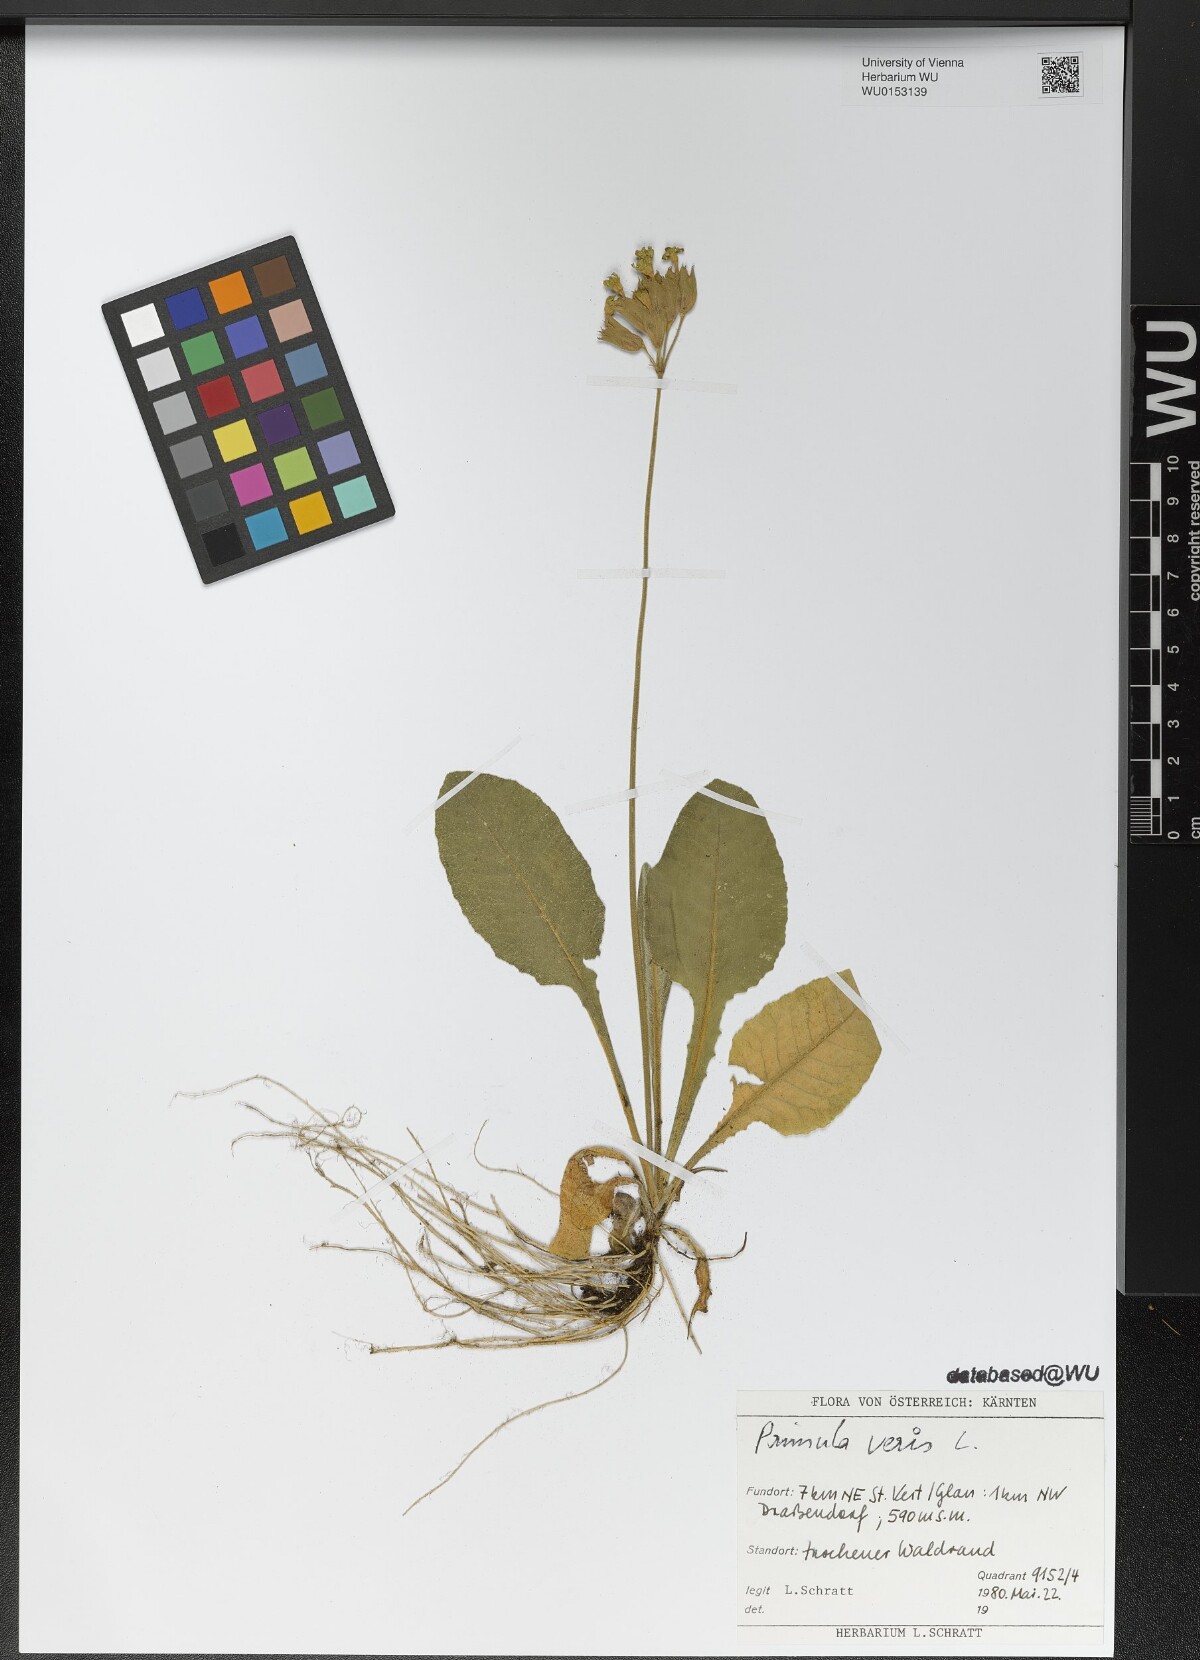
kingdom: Plantae
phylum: Tracheophyta
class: Magnoliopsida
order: Ericales
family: Primulaceae
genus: Primula
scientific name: Primula veris
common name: Cowslip
